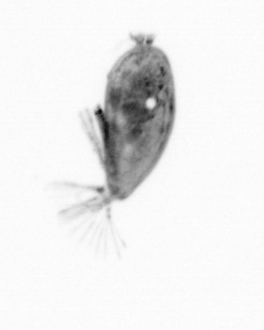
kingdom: Animalia
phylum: Arthropoda
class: Maxillopoda
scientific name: Maxillopoda
